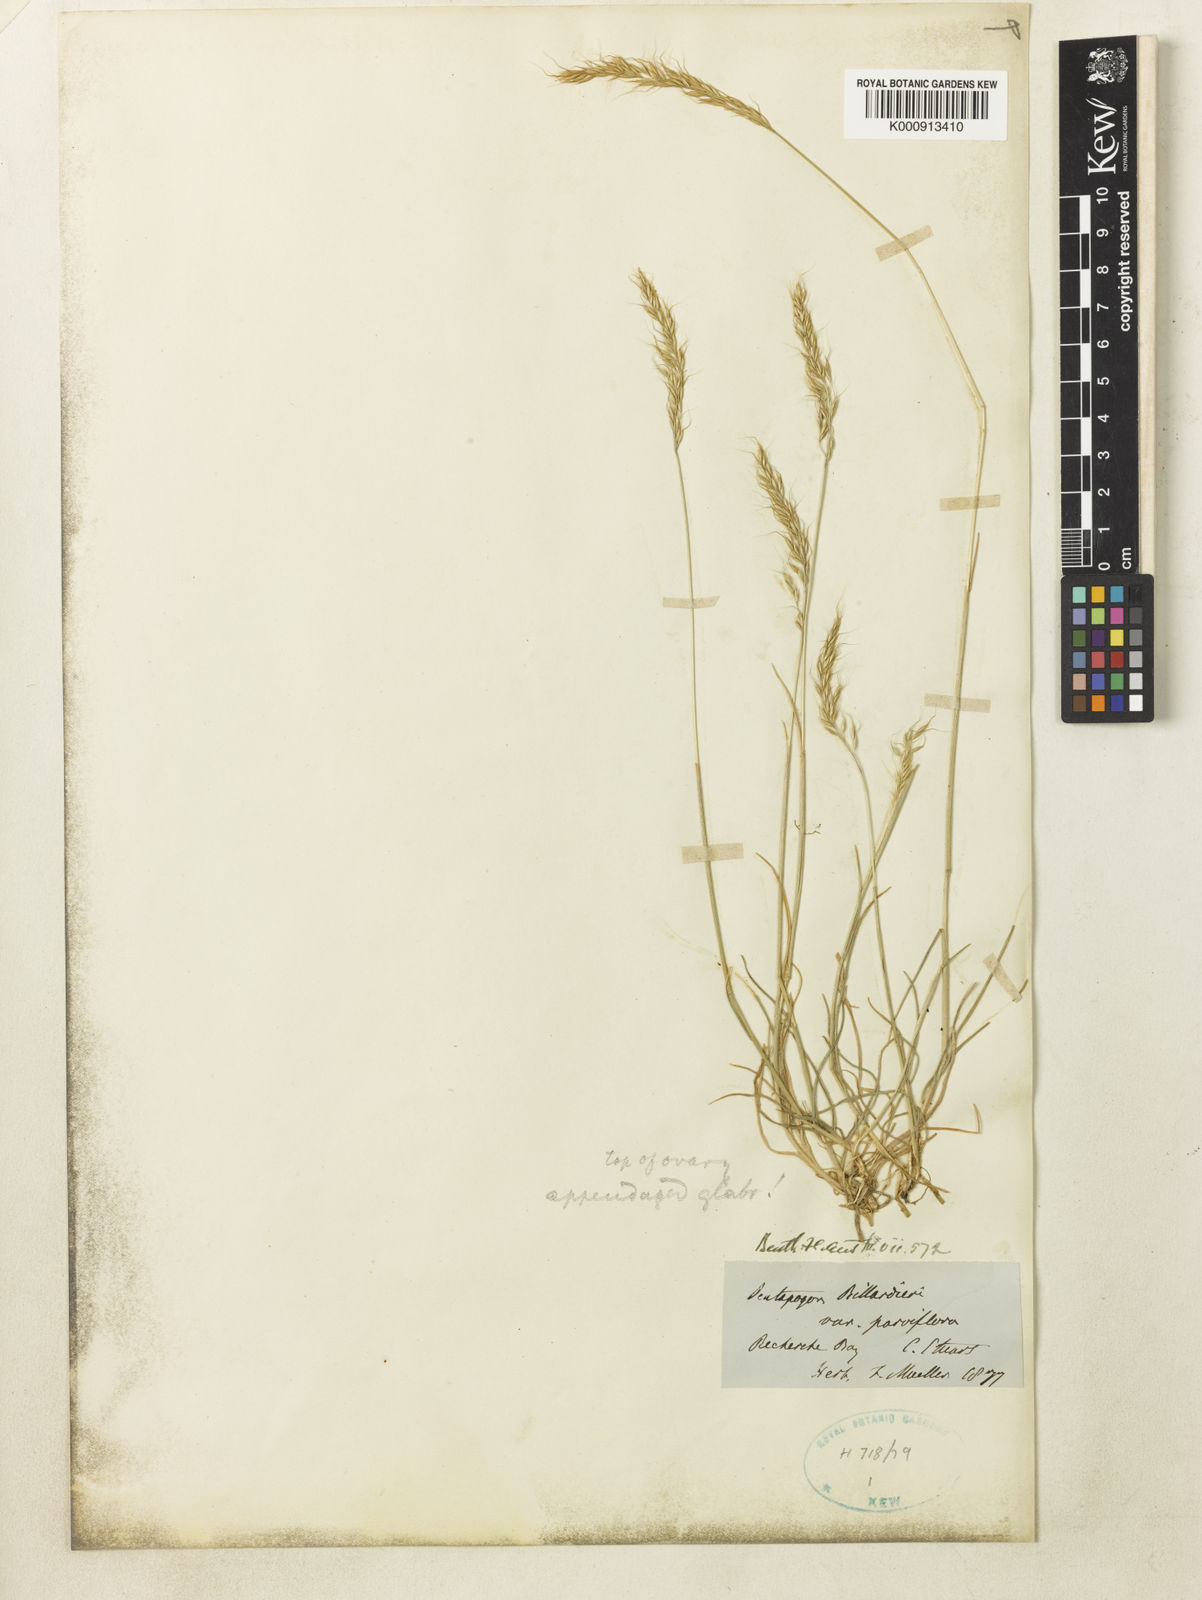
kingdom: Plantae
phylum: Tracheophyta
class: Liliopsida
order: Poales
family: Poaceae
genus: Pentapogon
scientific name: Pentapogon quadrifidus
